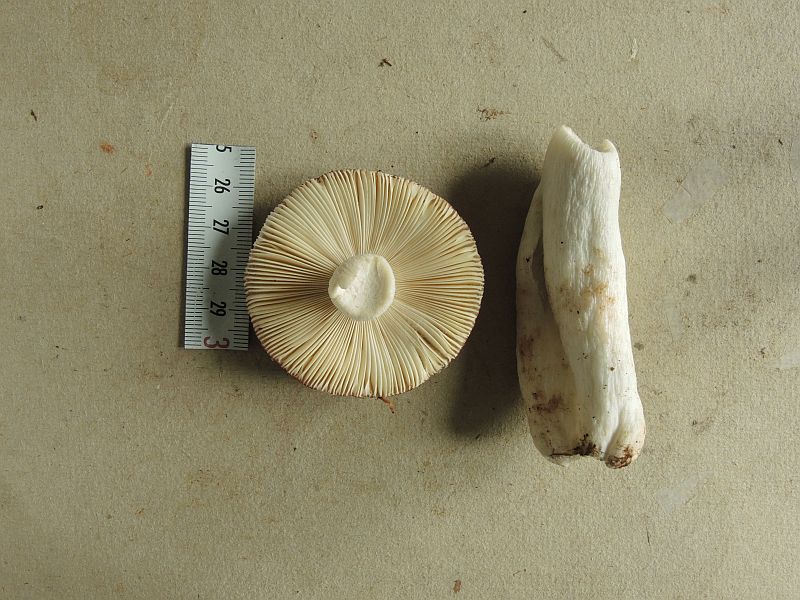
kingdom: Fungi
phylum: Basidiomycota
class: Agaricomycetes
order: Russulales
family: Russulaceae
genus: Russula
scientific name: Russula aquosa
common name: vand-skørhat
